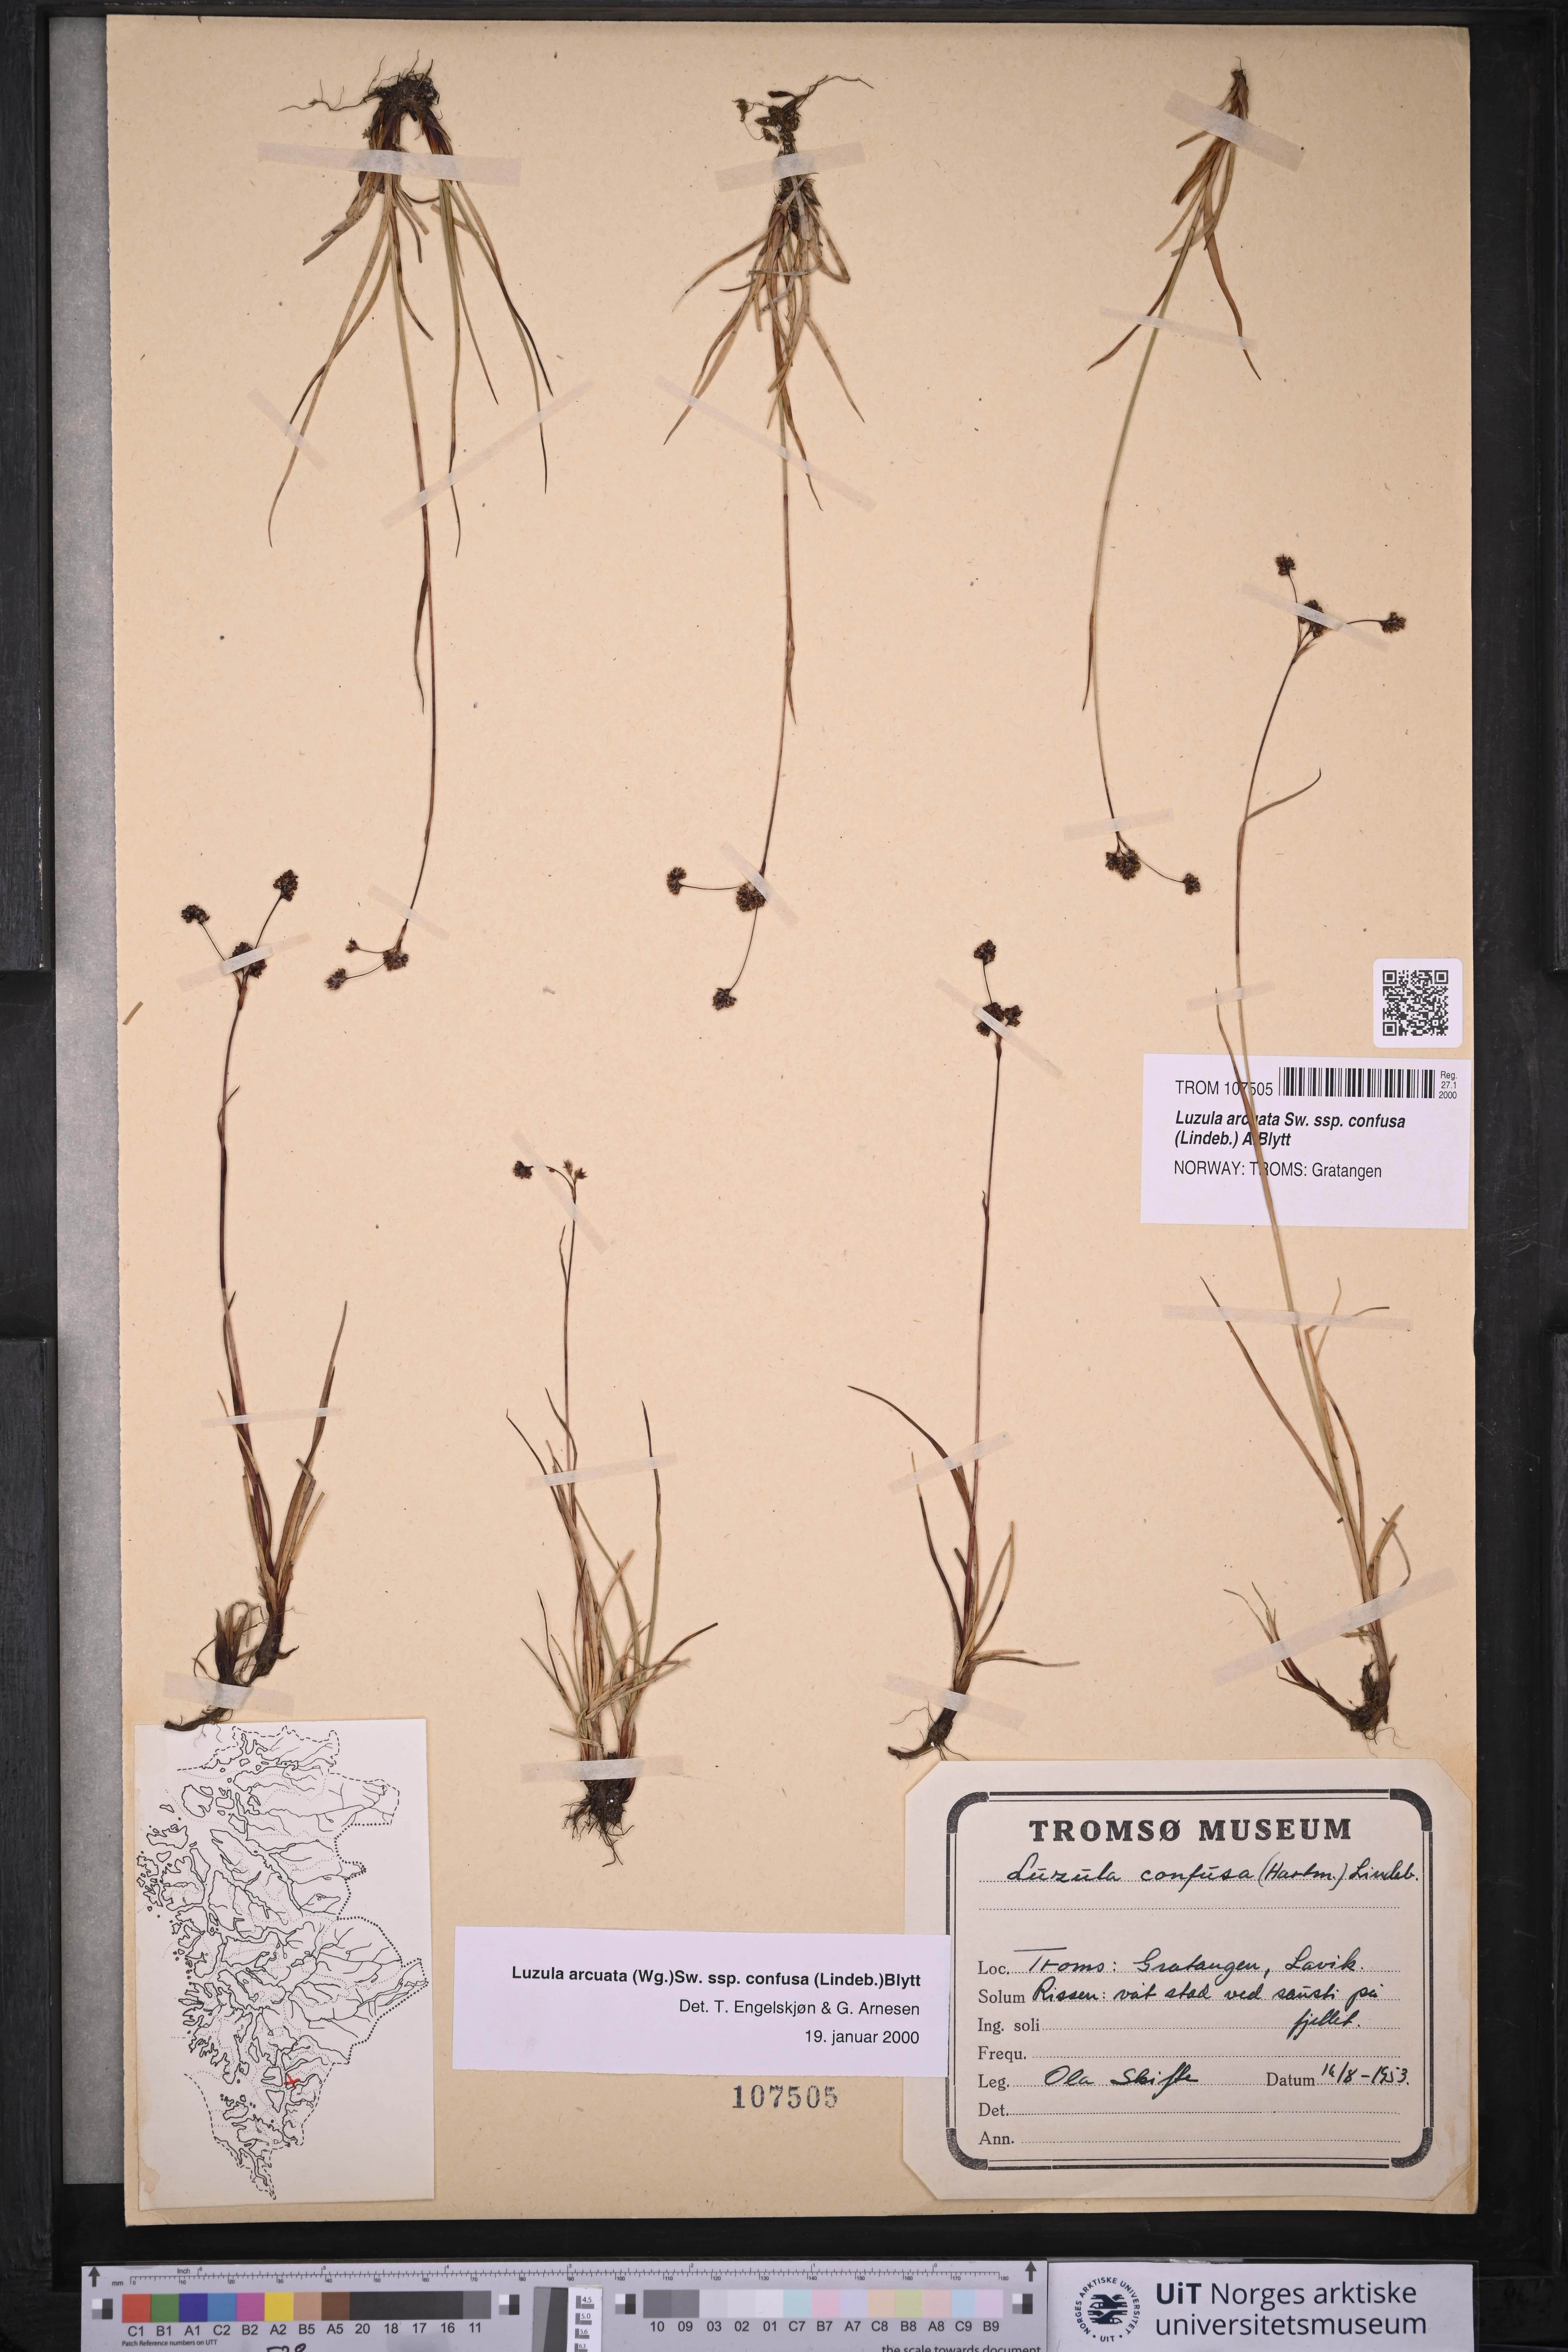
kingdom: Plantae
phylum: Tracheophyta
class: Liliopsida
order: Poales
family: Juncaceae
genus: Luzula
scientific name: Luzula confusa
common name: Northern wood rush
